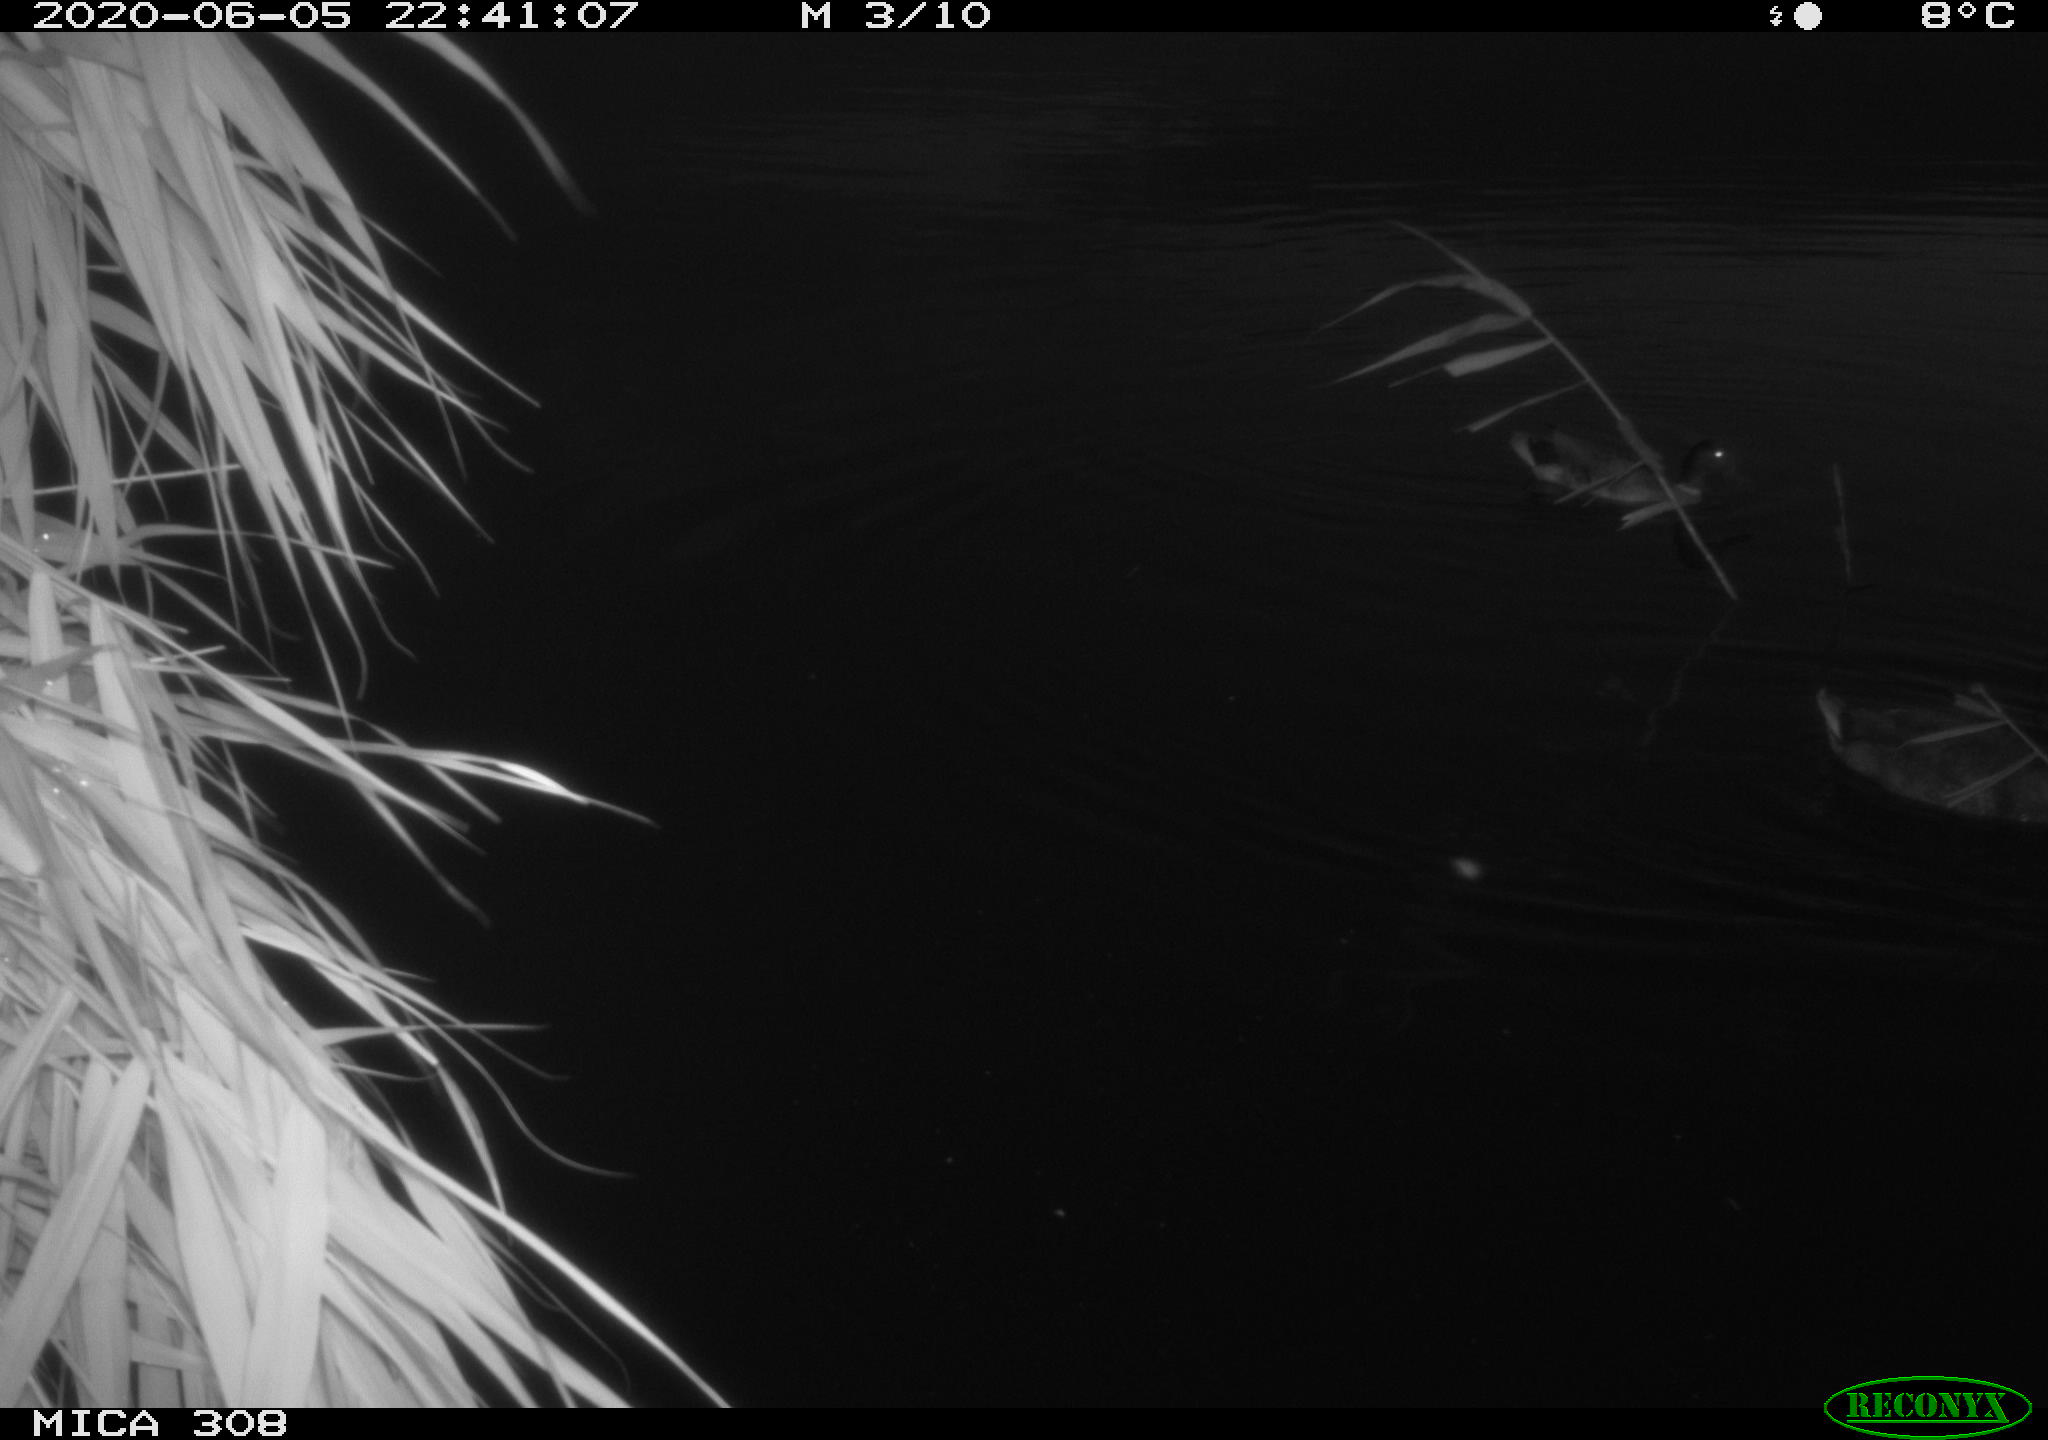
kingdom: Animalia
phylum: Chordata
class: Aves
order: Anseriformes
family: Anatidae
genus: Anas
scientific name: Anas platyrhynchos
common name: Mallard
